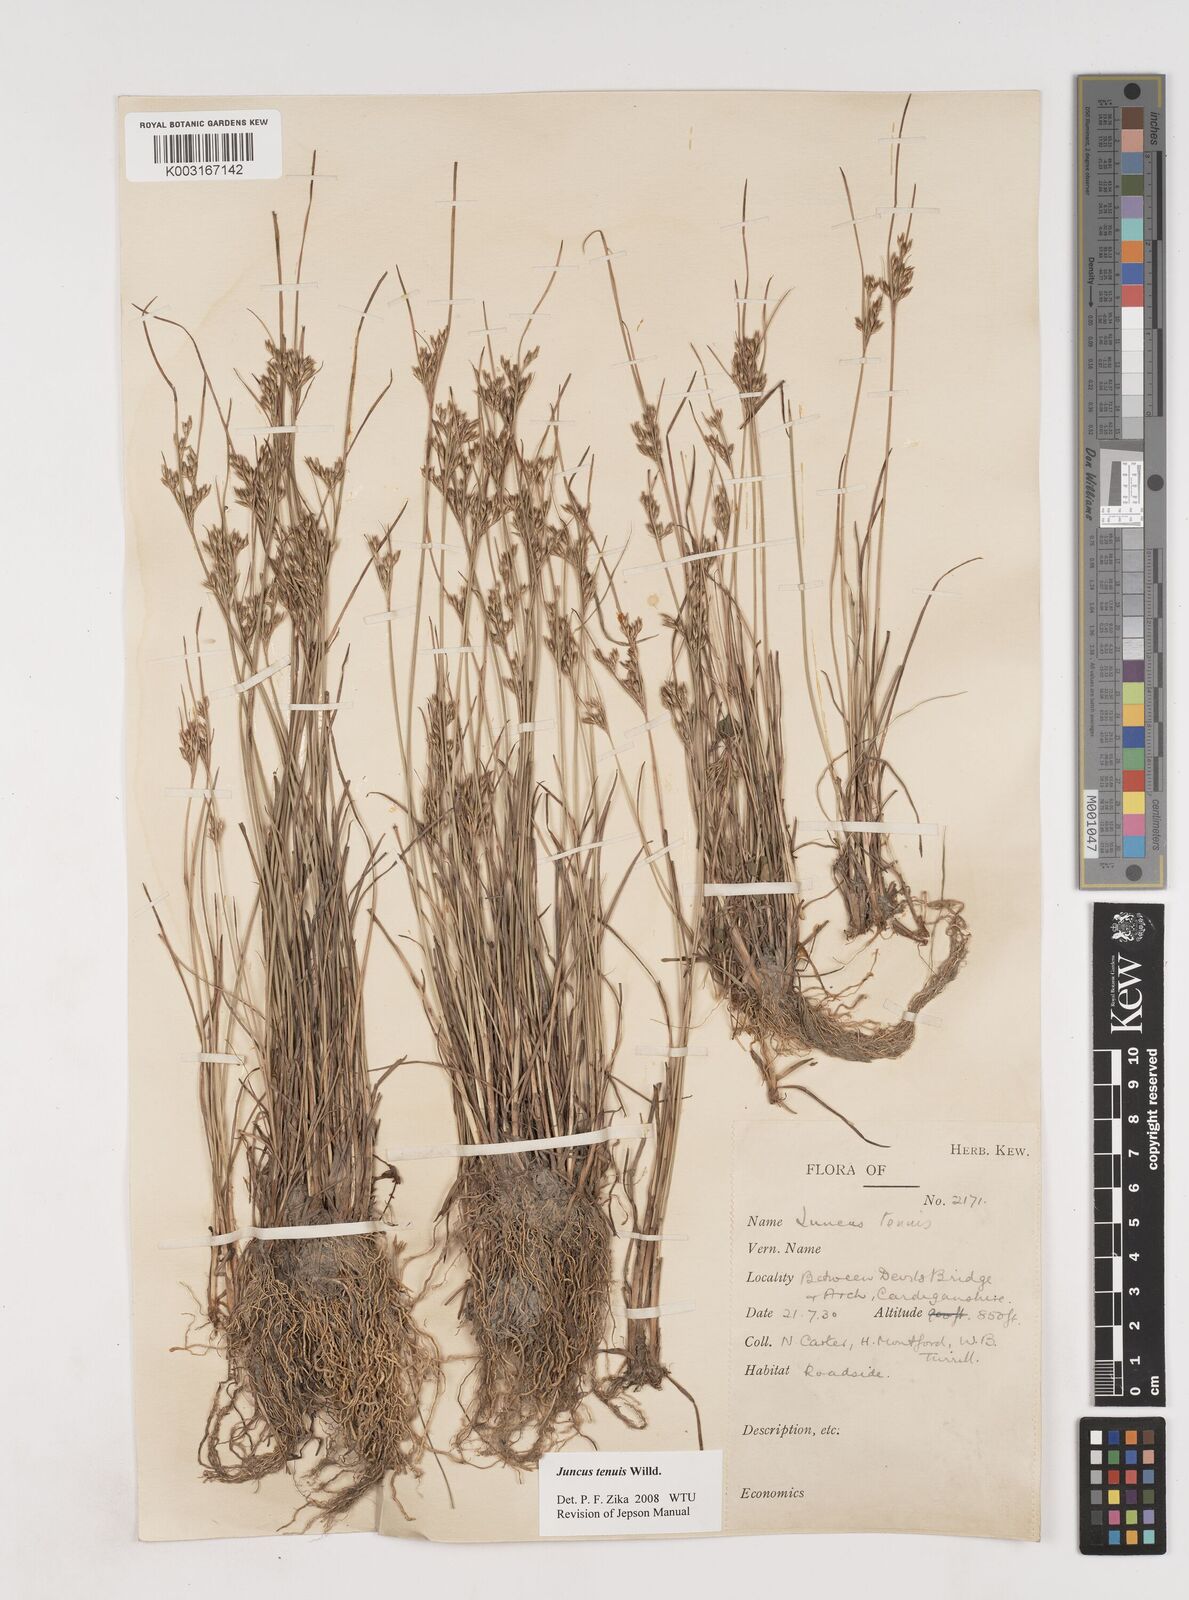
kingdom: Plantae
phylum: Tracheophyta
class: Liliopsida
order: Poales
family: Juncaceae
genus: Juncus
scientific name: Juncus tenuis
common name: Slender rush
